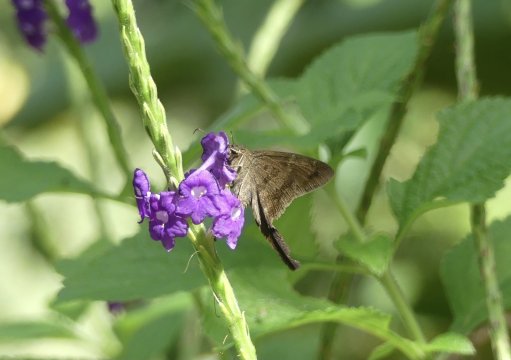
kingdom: Animalia
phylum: Arthropoda
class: Insecta
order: Lepidoptera
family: Hesperiidae
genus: Urbanus
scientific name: Urbanus procne
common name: Brown Longtail
